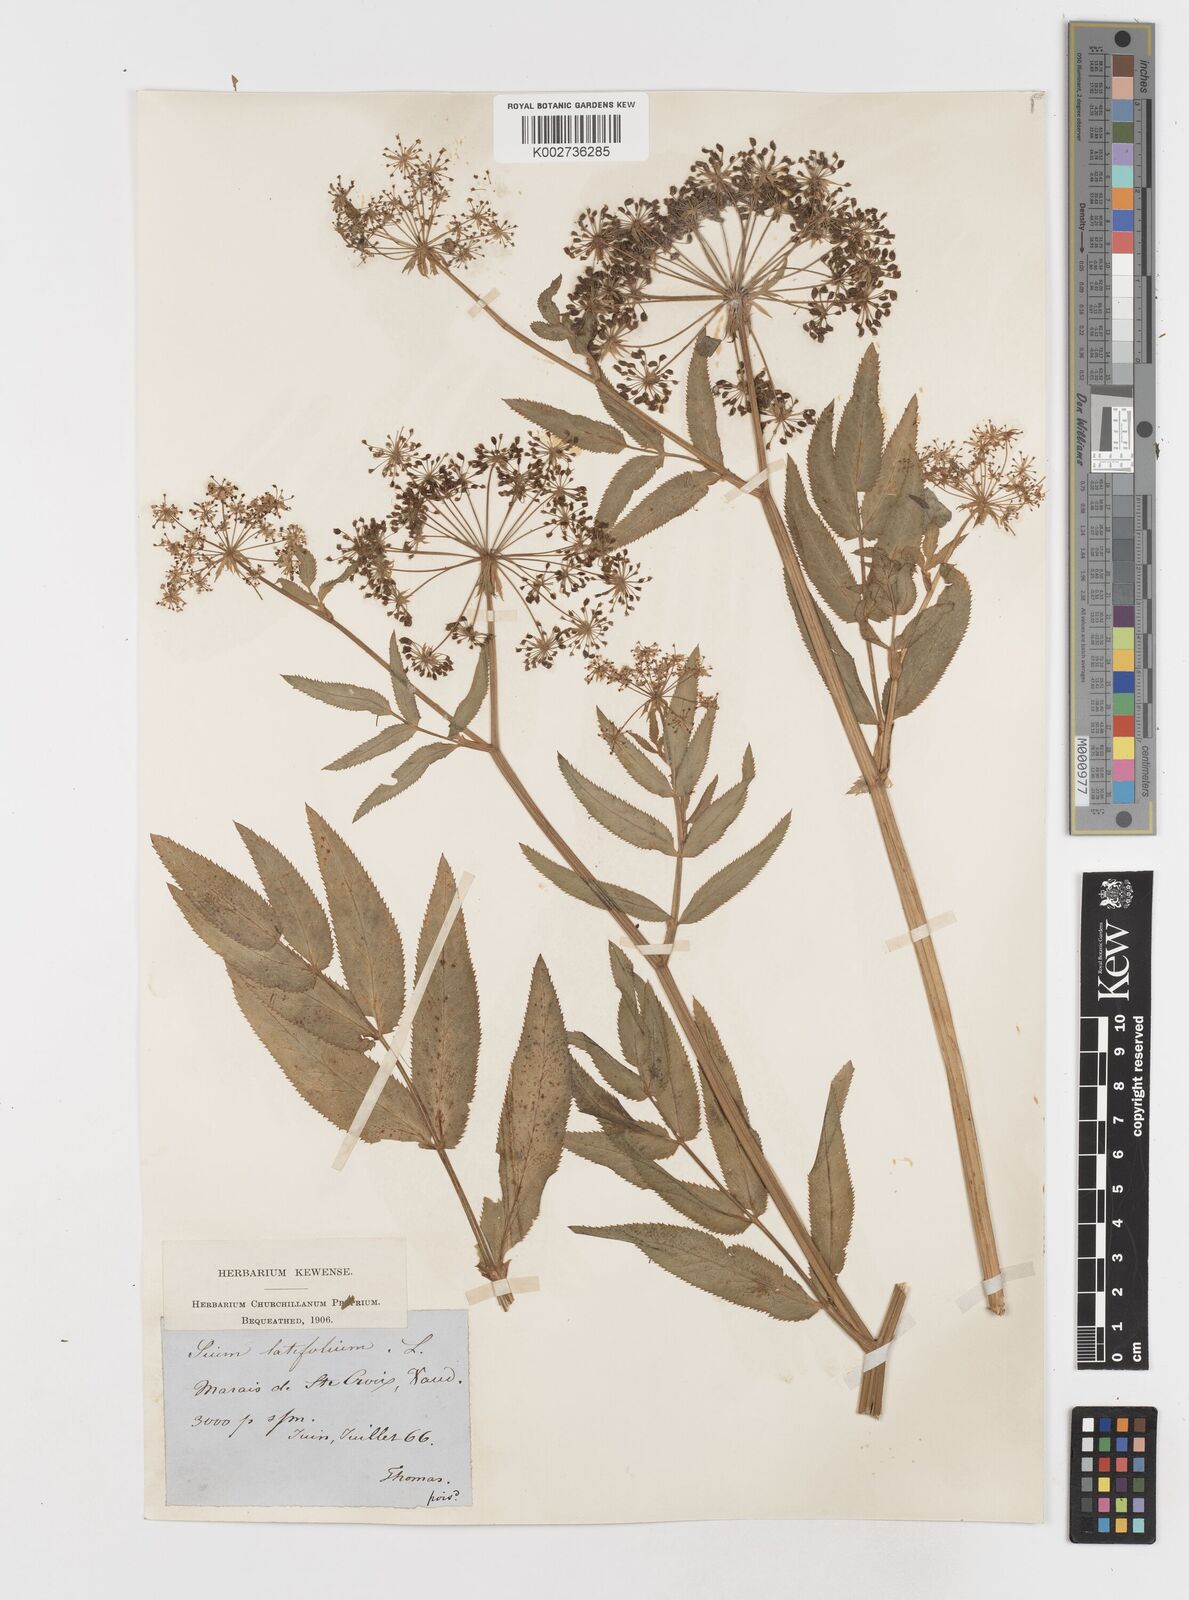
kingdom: Plantae
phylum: Tracheophyta
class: Magnoliopsida
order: Apiales
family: Apiaceae
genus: Sium
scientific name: Sium latifolium
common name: Greater water-parsnip
